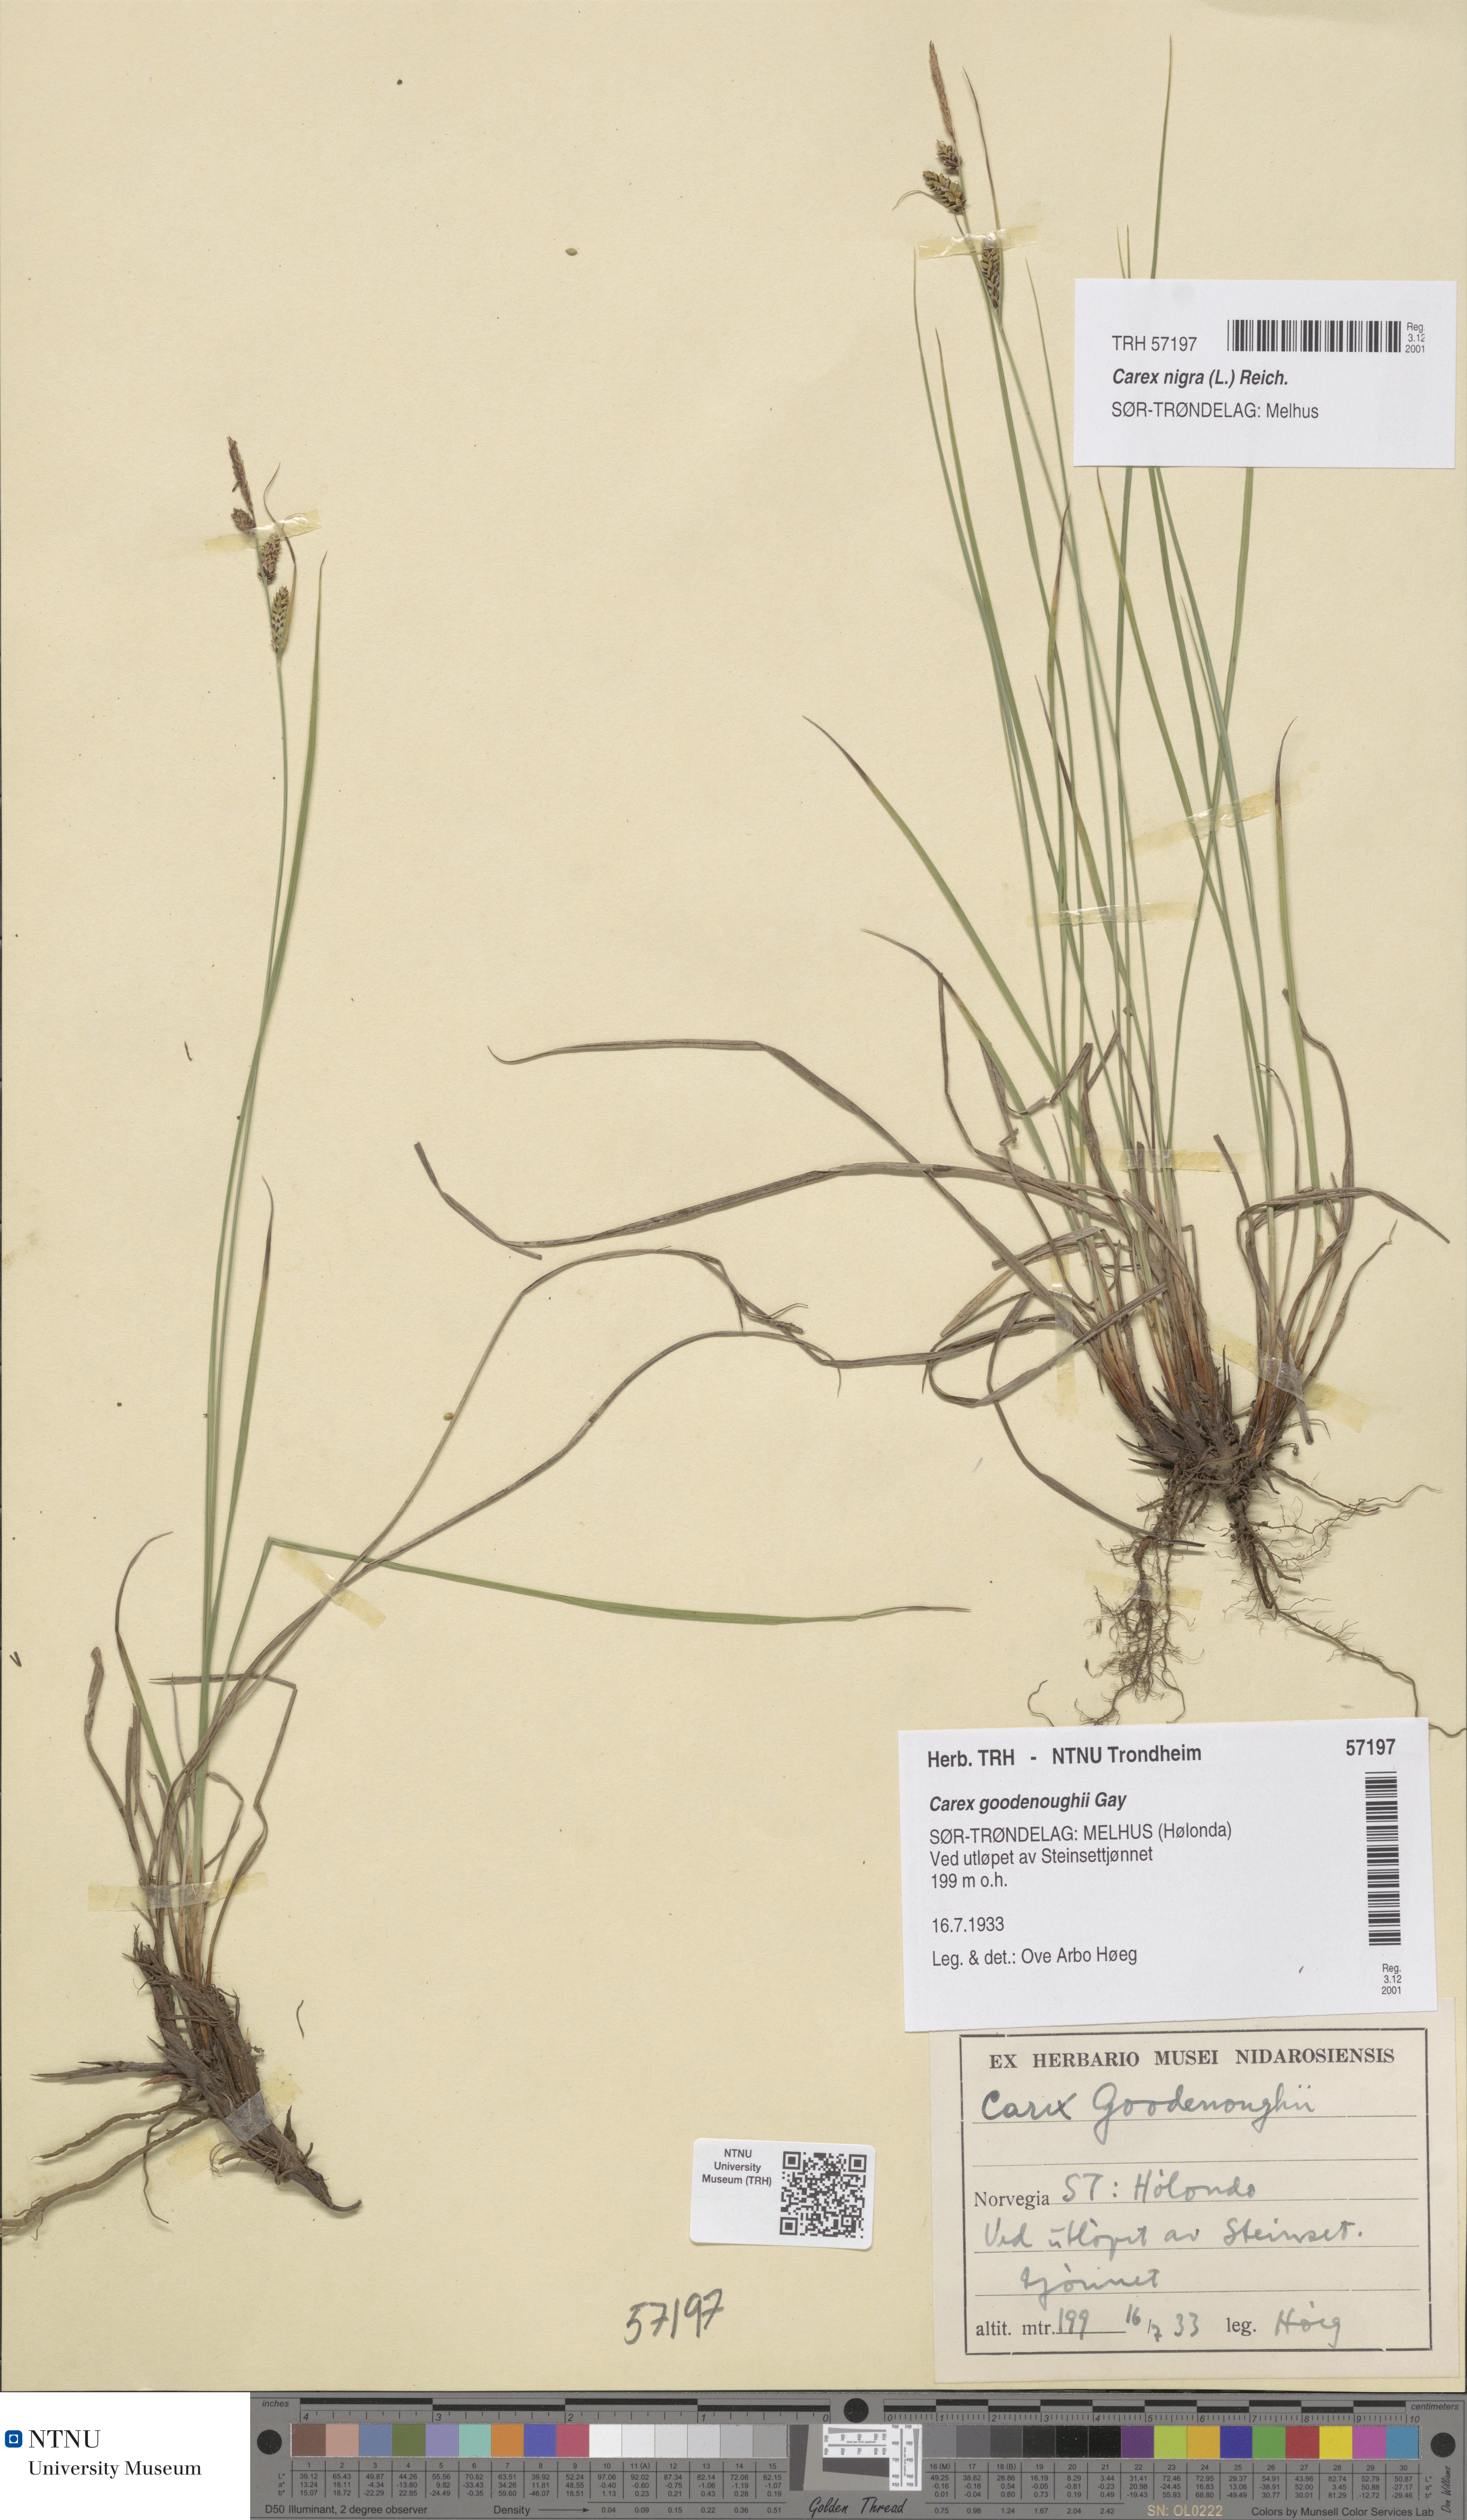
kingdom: Plantae
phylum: Tracheophyta
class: Liliopsida
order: Poales
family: Cyperaceae
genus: Carex
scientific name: Carex nigra
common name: Common sedge
